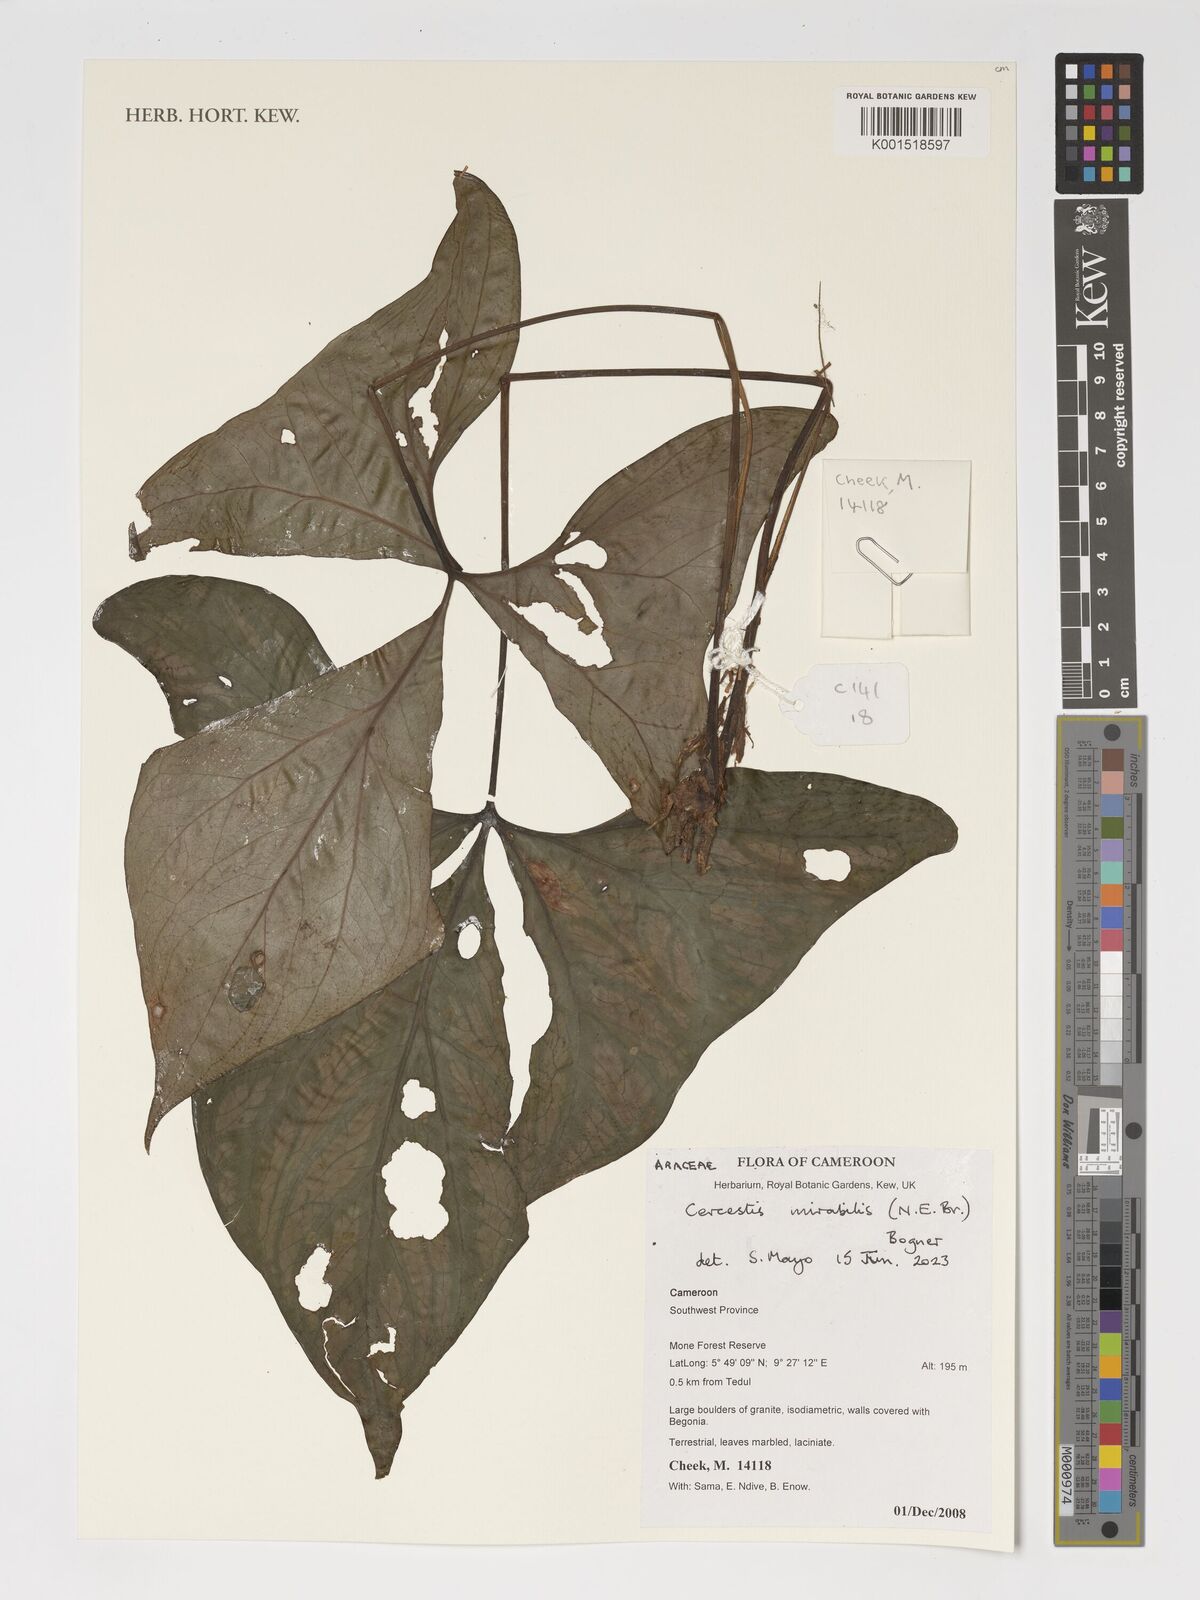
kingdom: Plantae
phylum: Tracheophyta
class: Liliopsida
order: Alismatales
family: Araceae
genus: Cercestis
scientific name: Cercestis mirabilis
